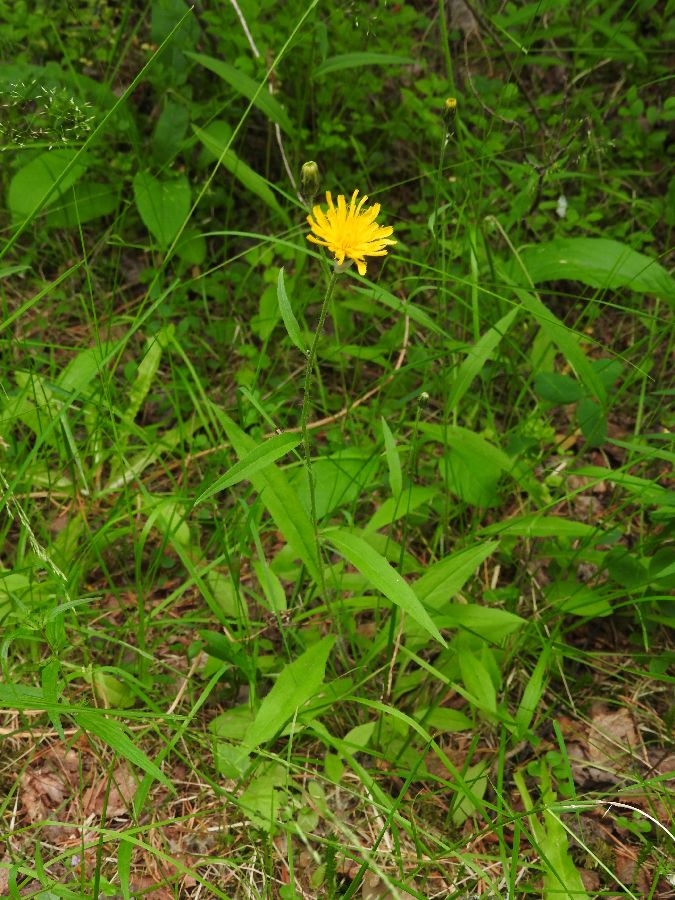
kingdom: Plantae
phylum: Tracheophyta
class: Magnoliopsida
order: Asterales
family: Asteraceae
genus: Hieracium
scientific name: Hieracium laevigatum
